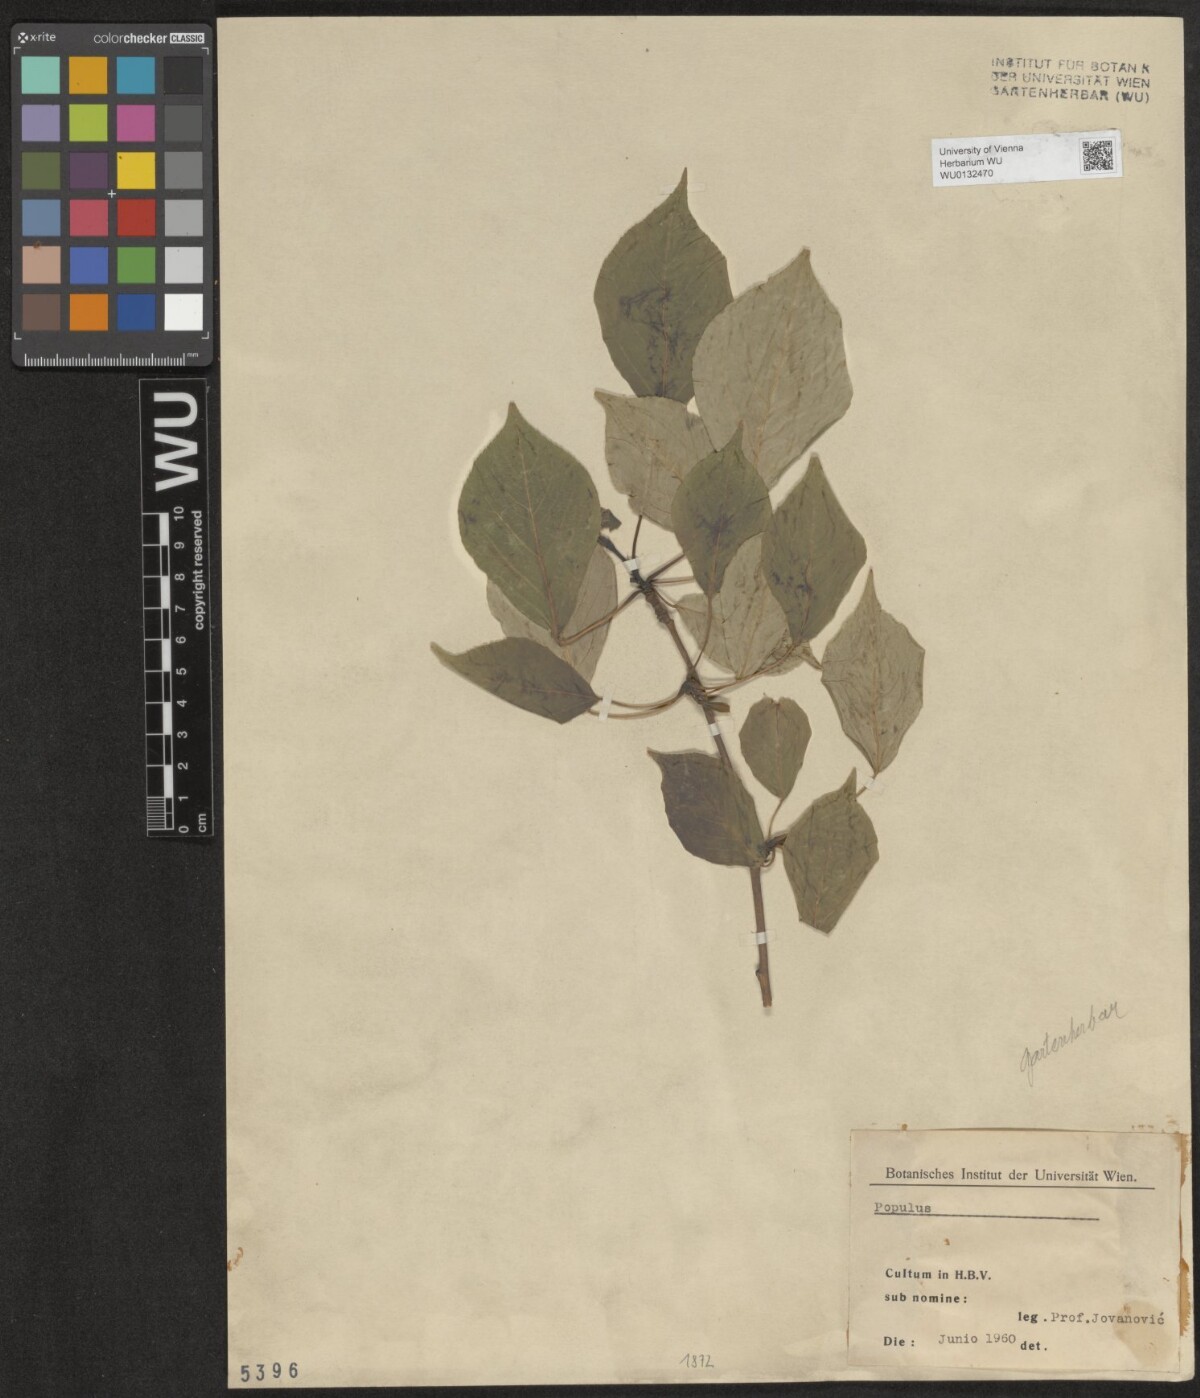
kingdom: Plantae
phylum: Tracheophyta
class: Magnoliopsida
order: Malpighiales
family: Salicaceae
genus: Populus
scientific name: Populus
